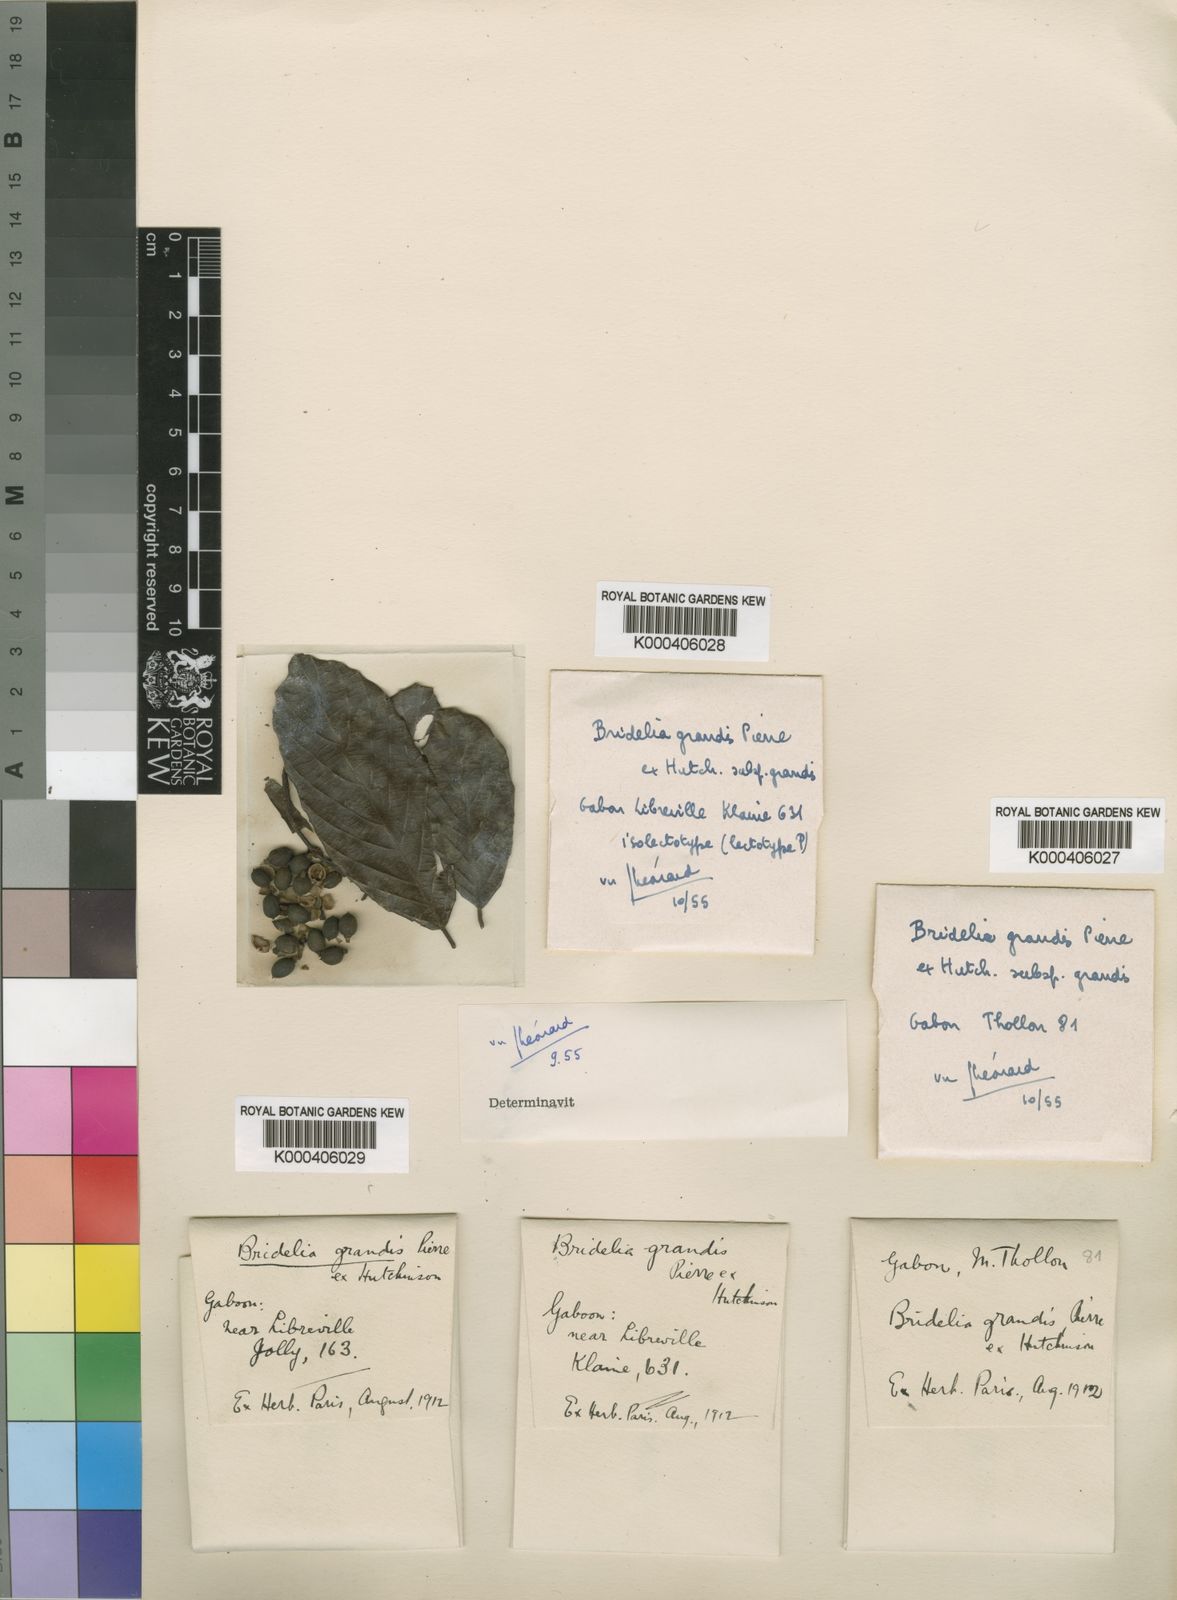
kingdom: Plantae
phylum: Tracheophyta
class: Magnoliopsida
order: Malpighiales
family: Phyllanthaceae
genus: Bridelia
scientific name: Bridelia grandis
